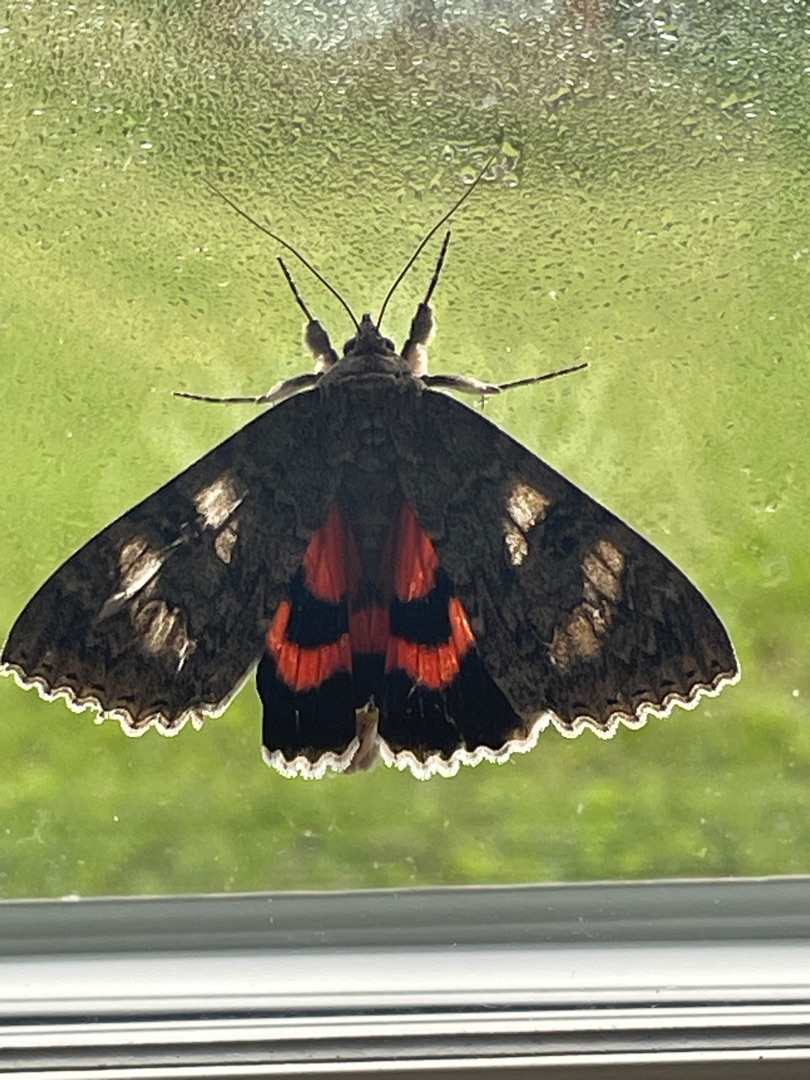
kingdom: Animalia
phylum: Arthropoda
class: Insecta
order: Lepidoptera
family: Erebidae
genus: Catocala
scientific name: Catocala nupta
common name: Rødt ordensbånd
